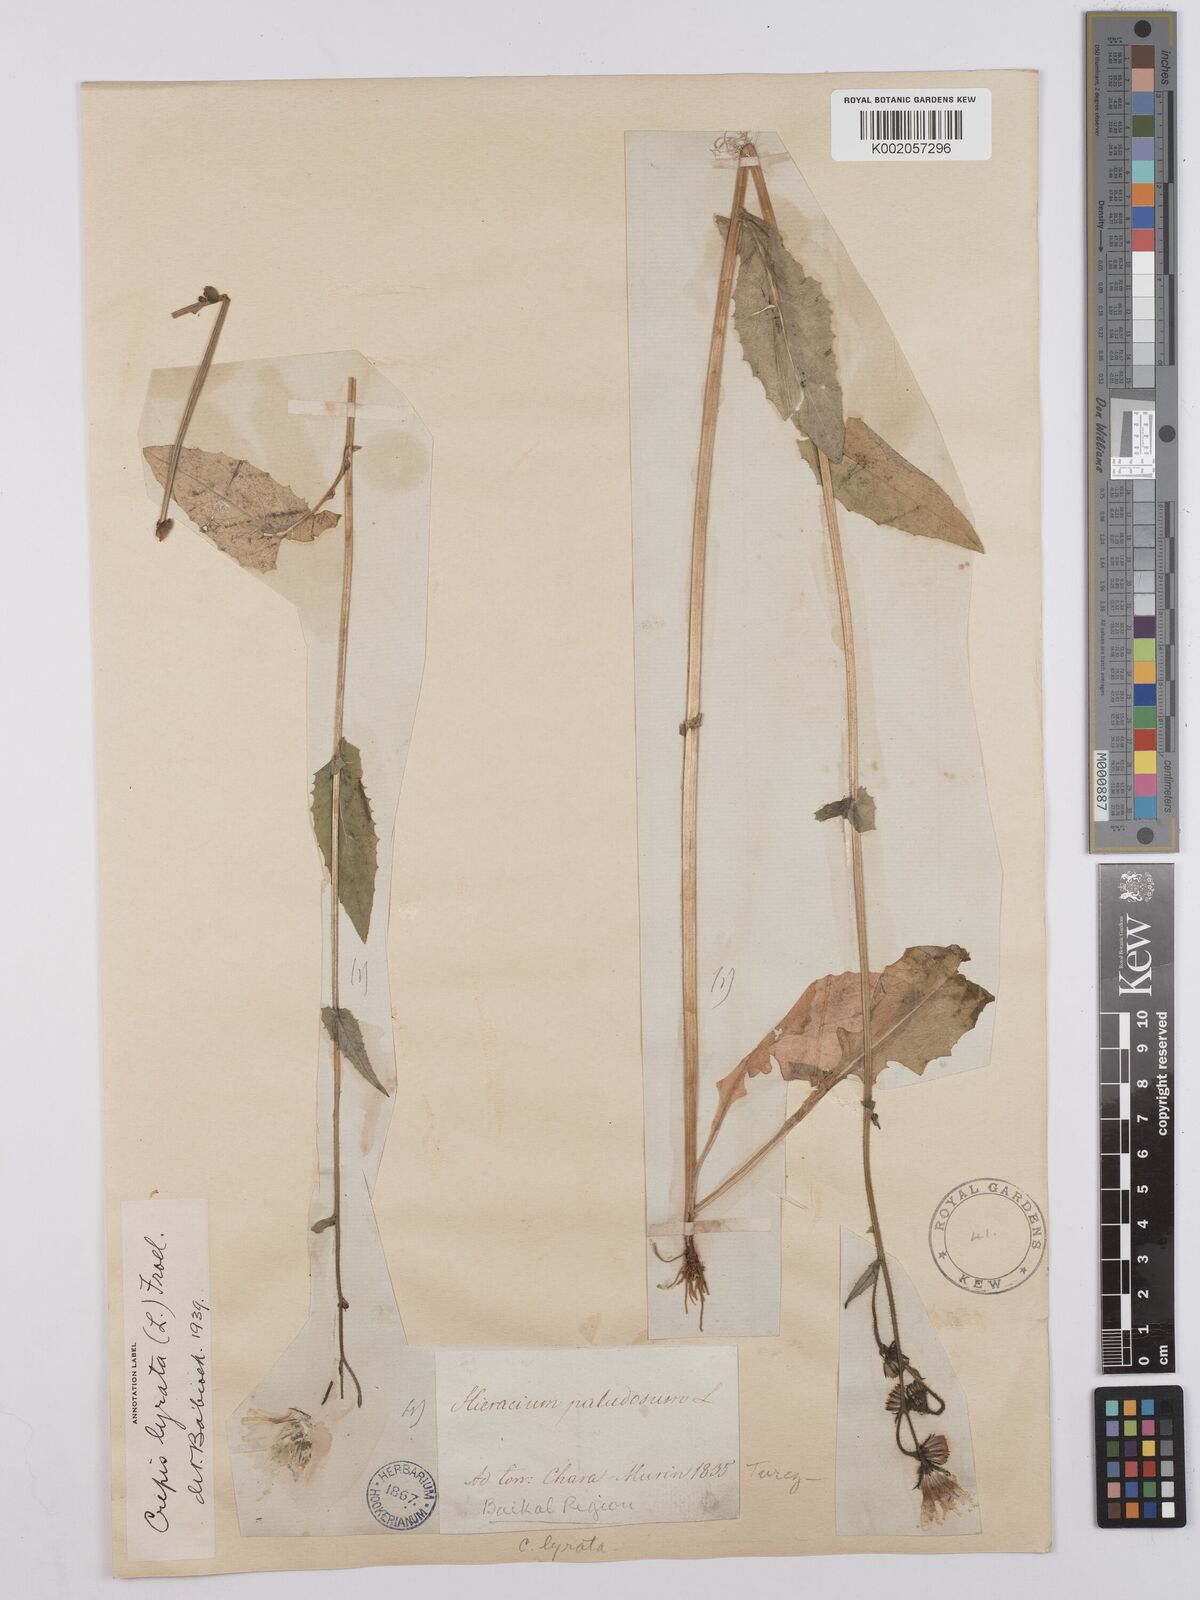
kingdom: Plantae
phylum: Tracheophyta
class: Magnoliopsida
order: Asterales
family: Asteraceae
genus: Crepis
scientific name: Crepis lyrata
